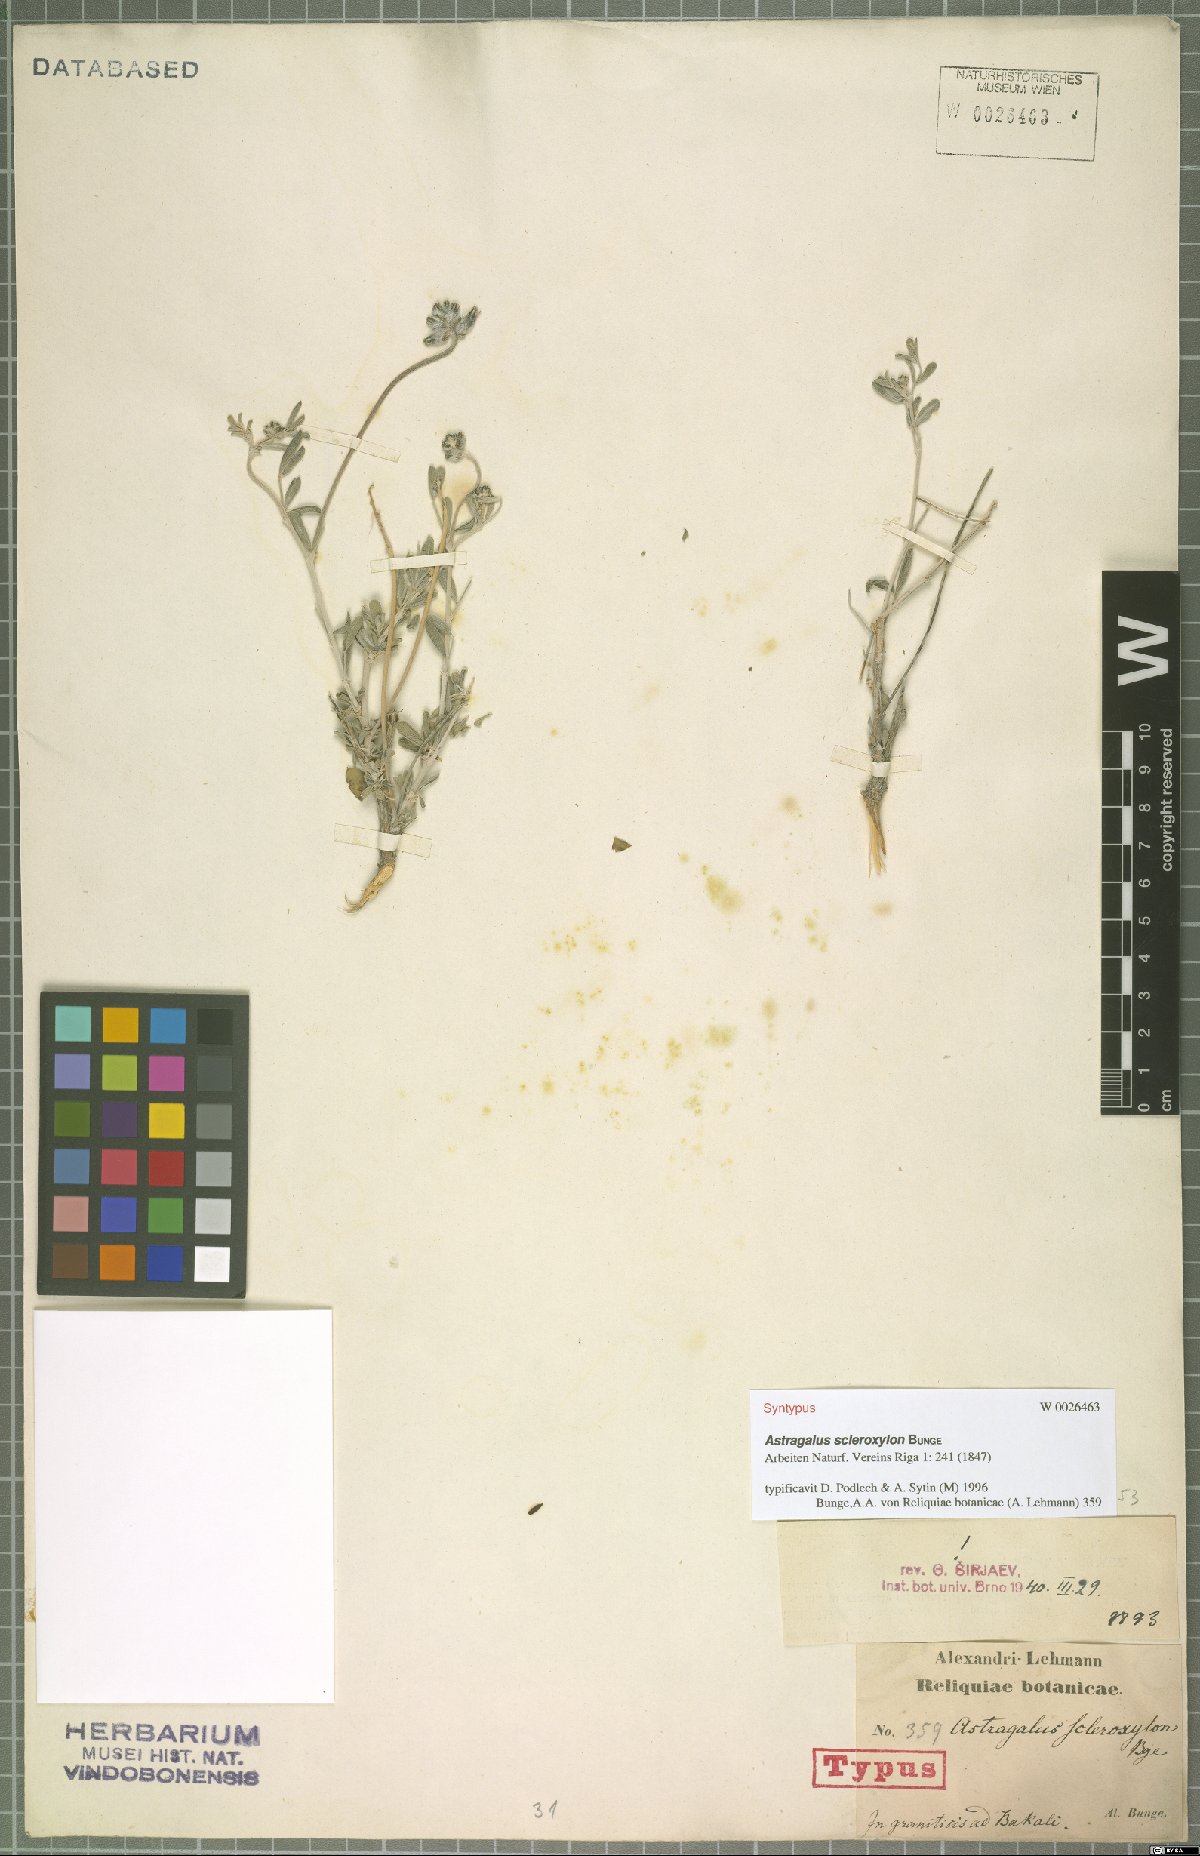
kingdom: Plantae
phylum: Tracheophyta
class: Magnoliopsida
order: Fabales
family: Fabaceae
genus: Astragalus
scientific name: Astragalus scleroxylon
